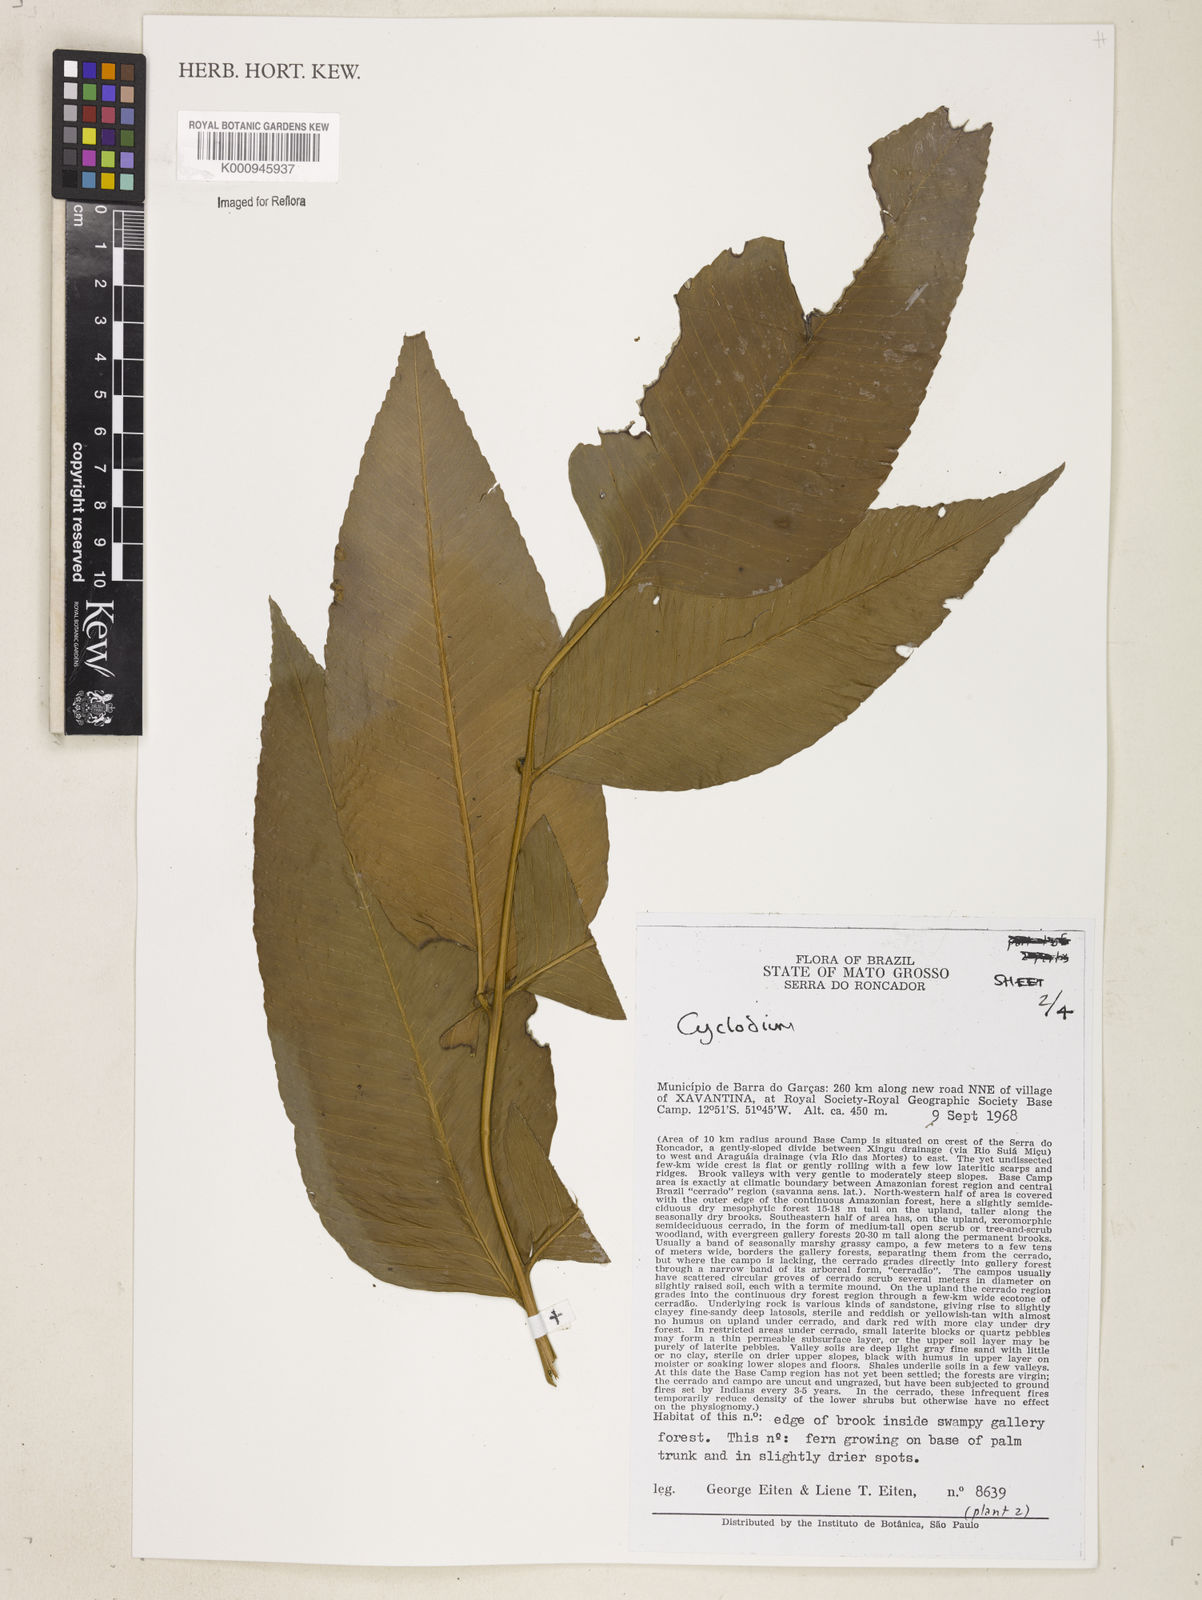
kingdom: Plantae
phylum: Tracheophyta
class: Polypodiopsida
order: Polypodiales
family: Dryopteridaceae
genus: Cyclodium
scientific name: Cyclodium meniscioides
